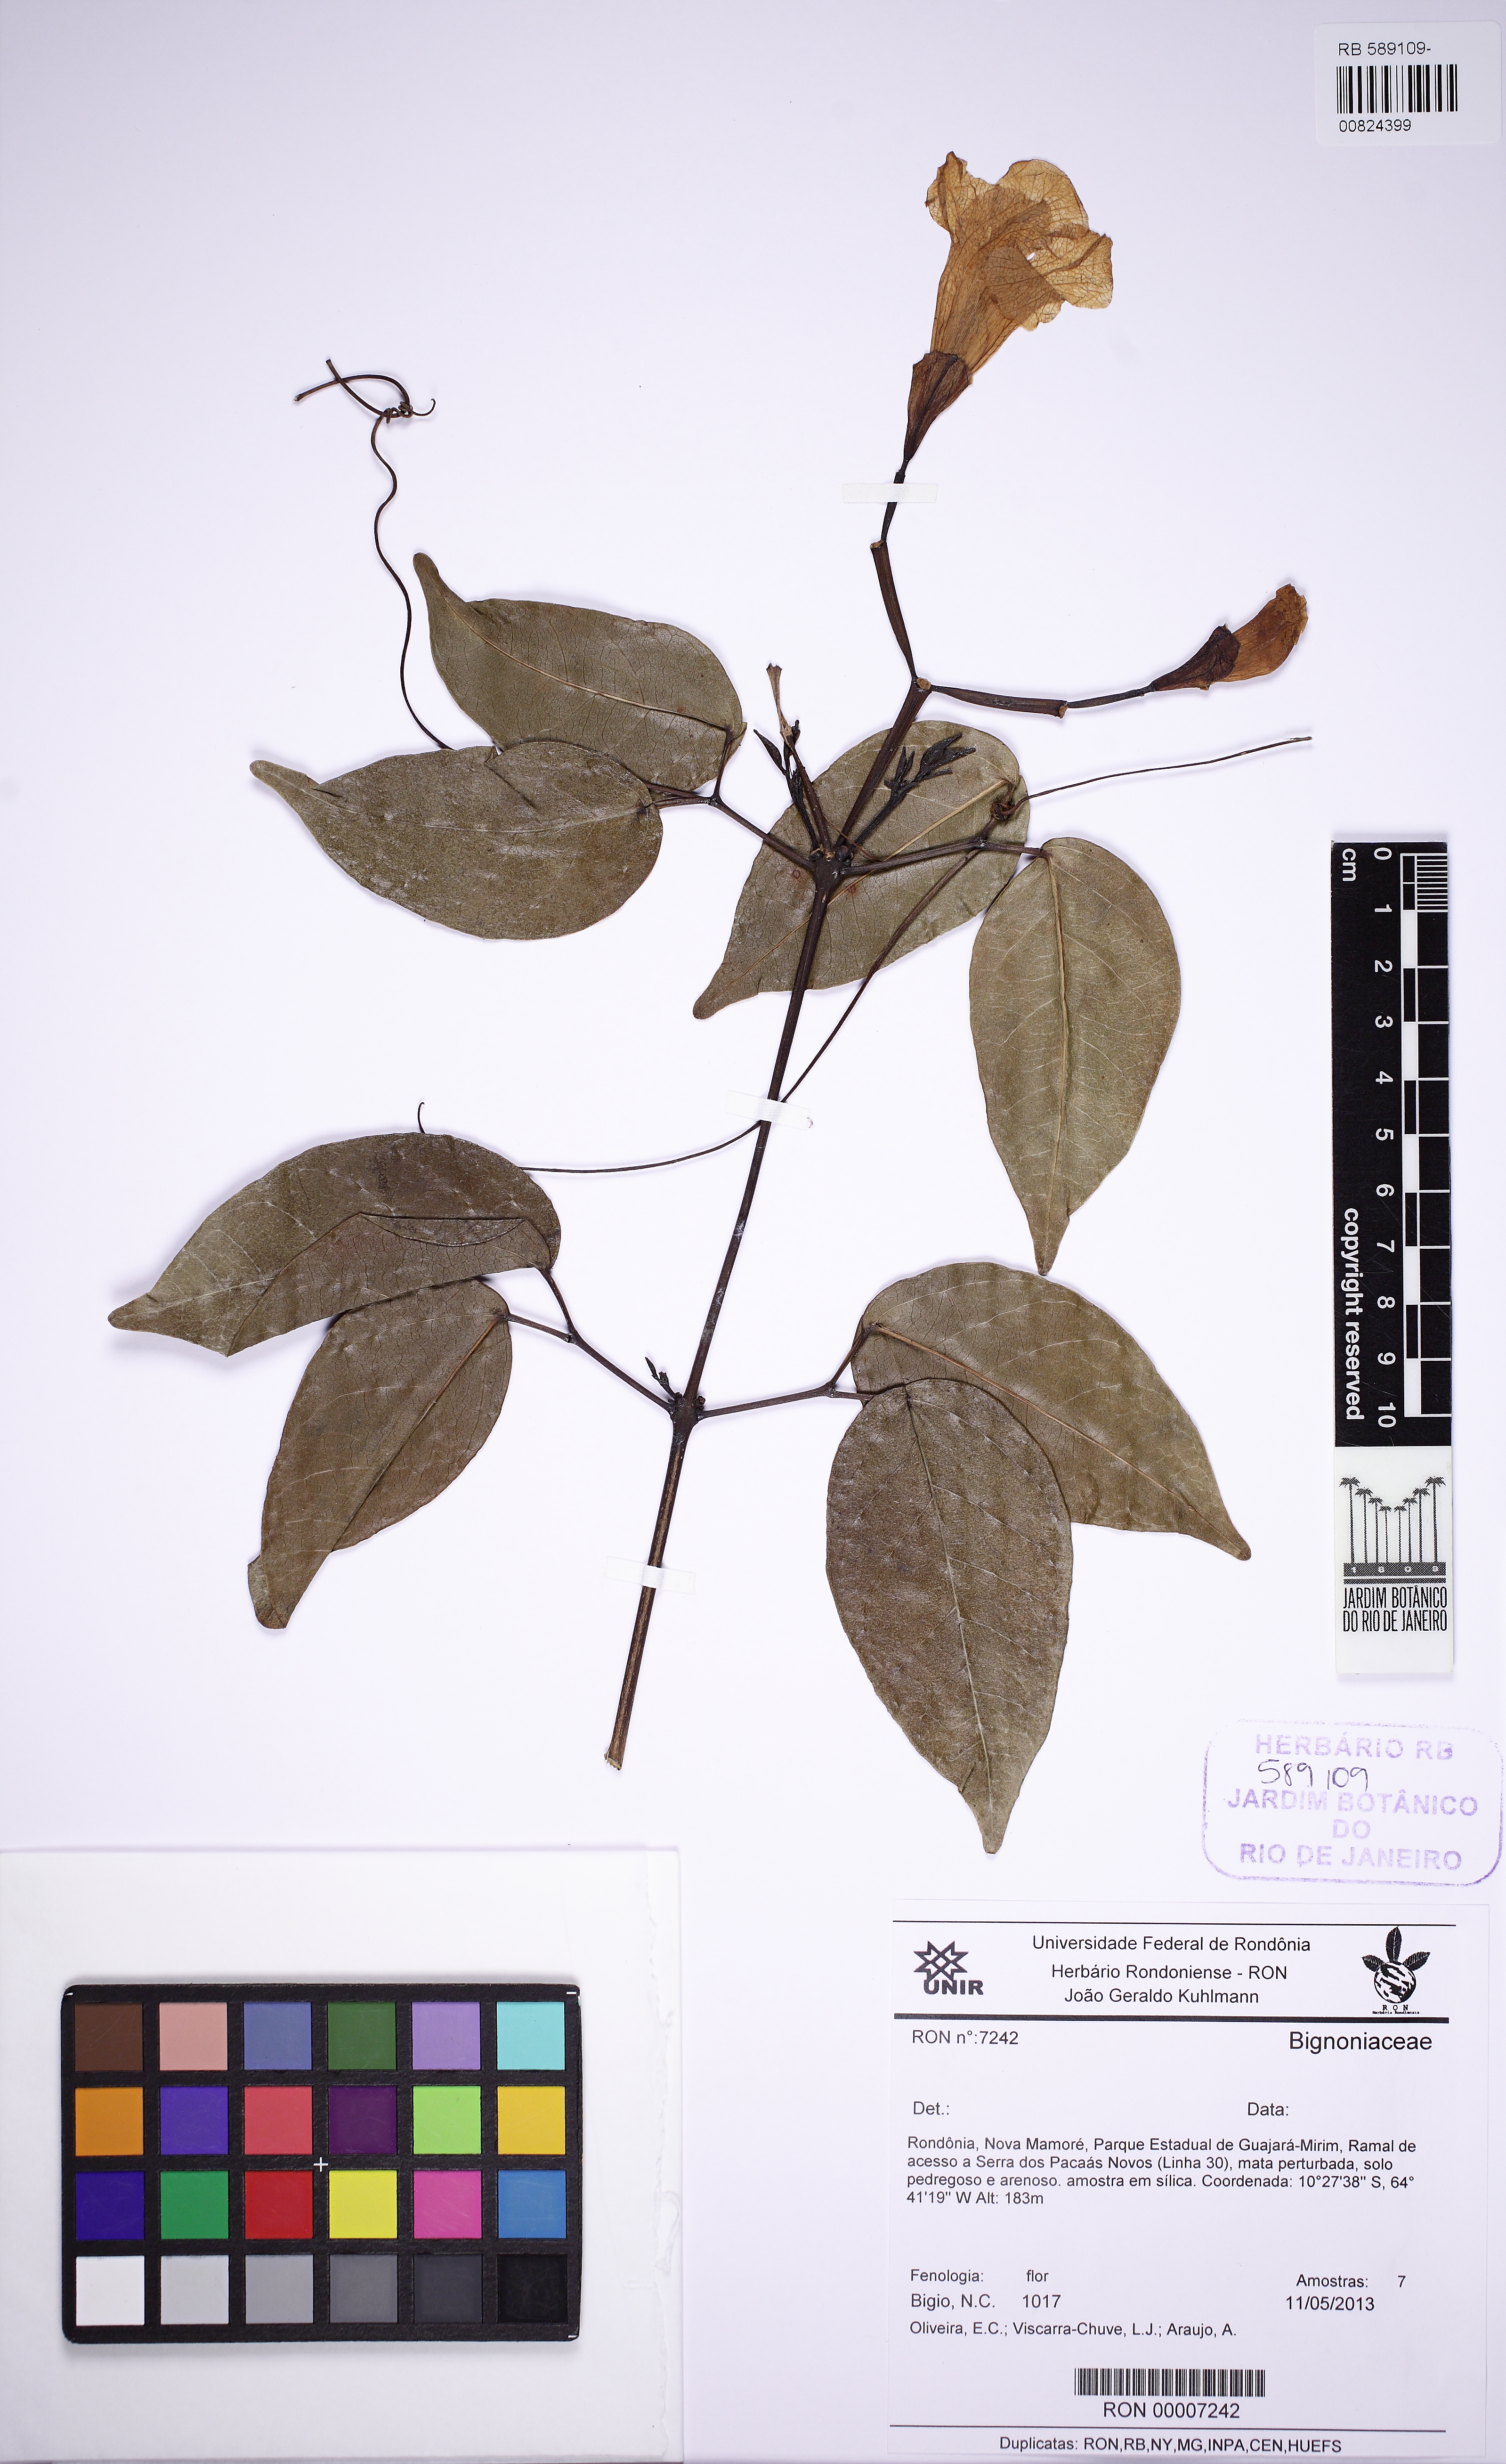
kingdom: Plantae
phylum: Tracheophyta
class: Magnoliopsida
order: Lamiales
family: Bignoniaceae
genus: Bignonia
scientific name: Bignonia corymbosa
